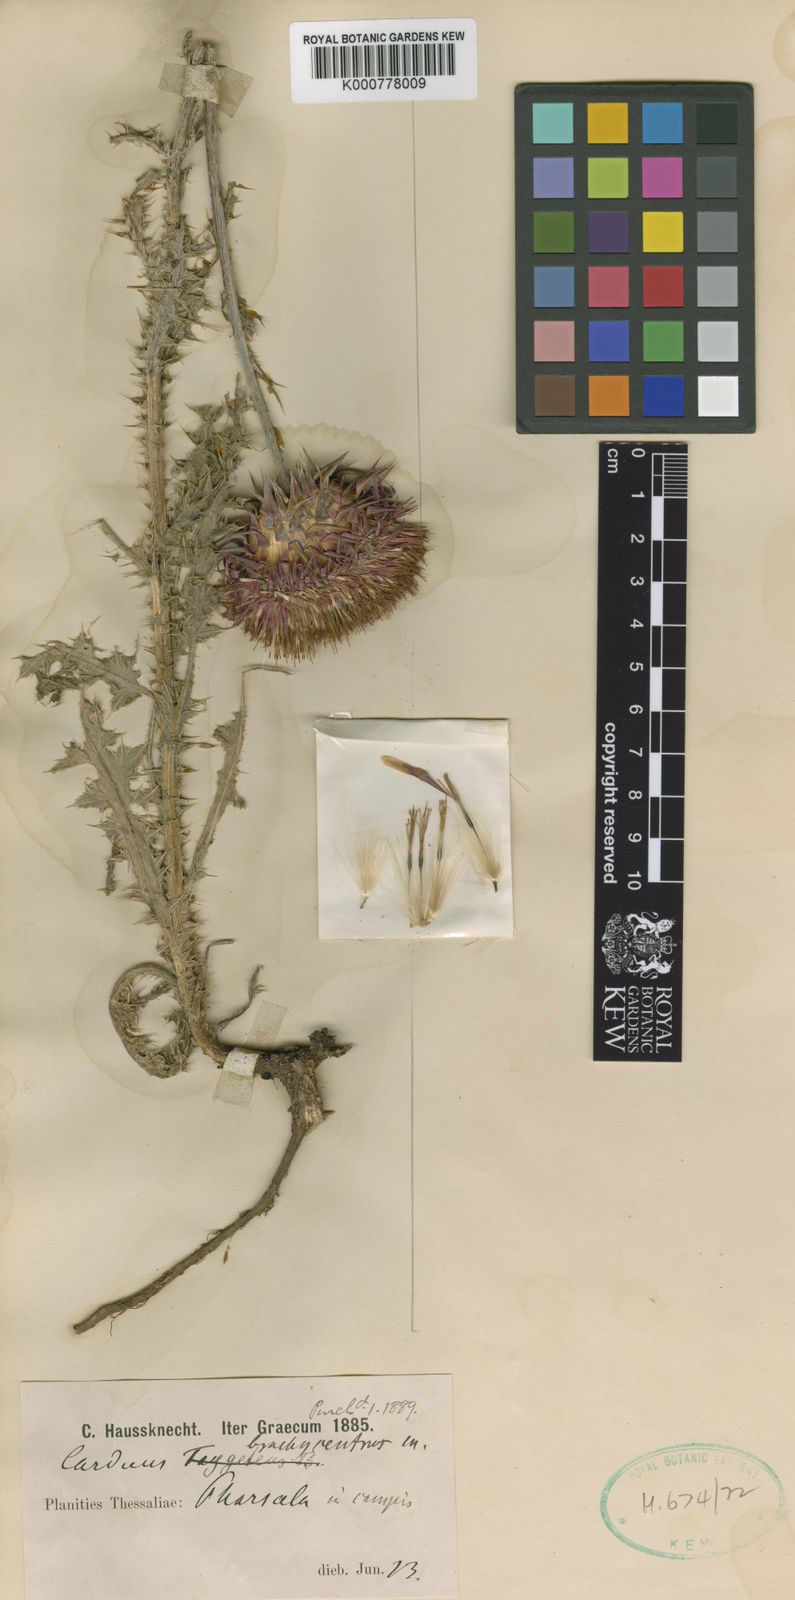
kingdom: Plantae
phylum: Tracheophyta
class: Magnoliopsida
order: Asterales
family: Asteraceae
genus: Carduus
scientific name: Carduus collinus
